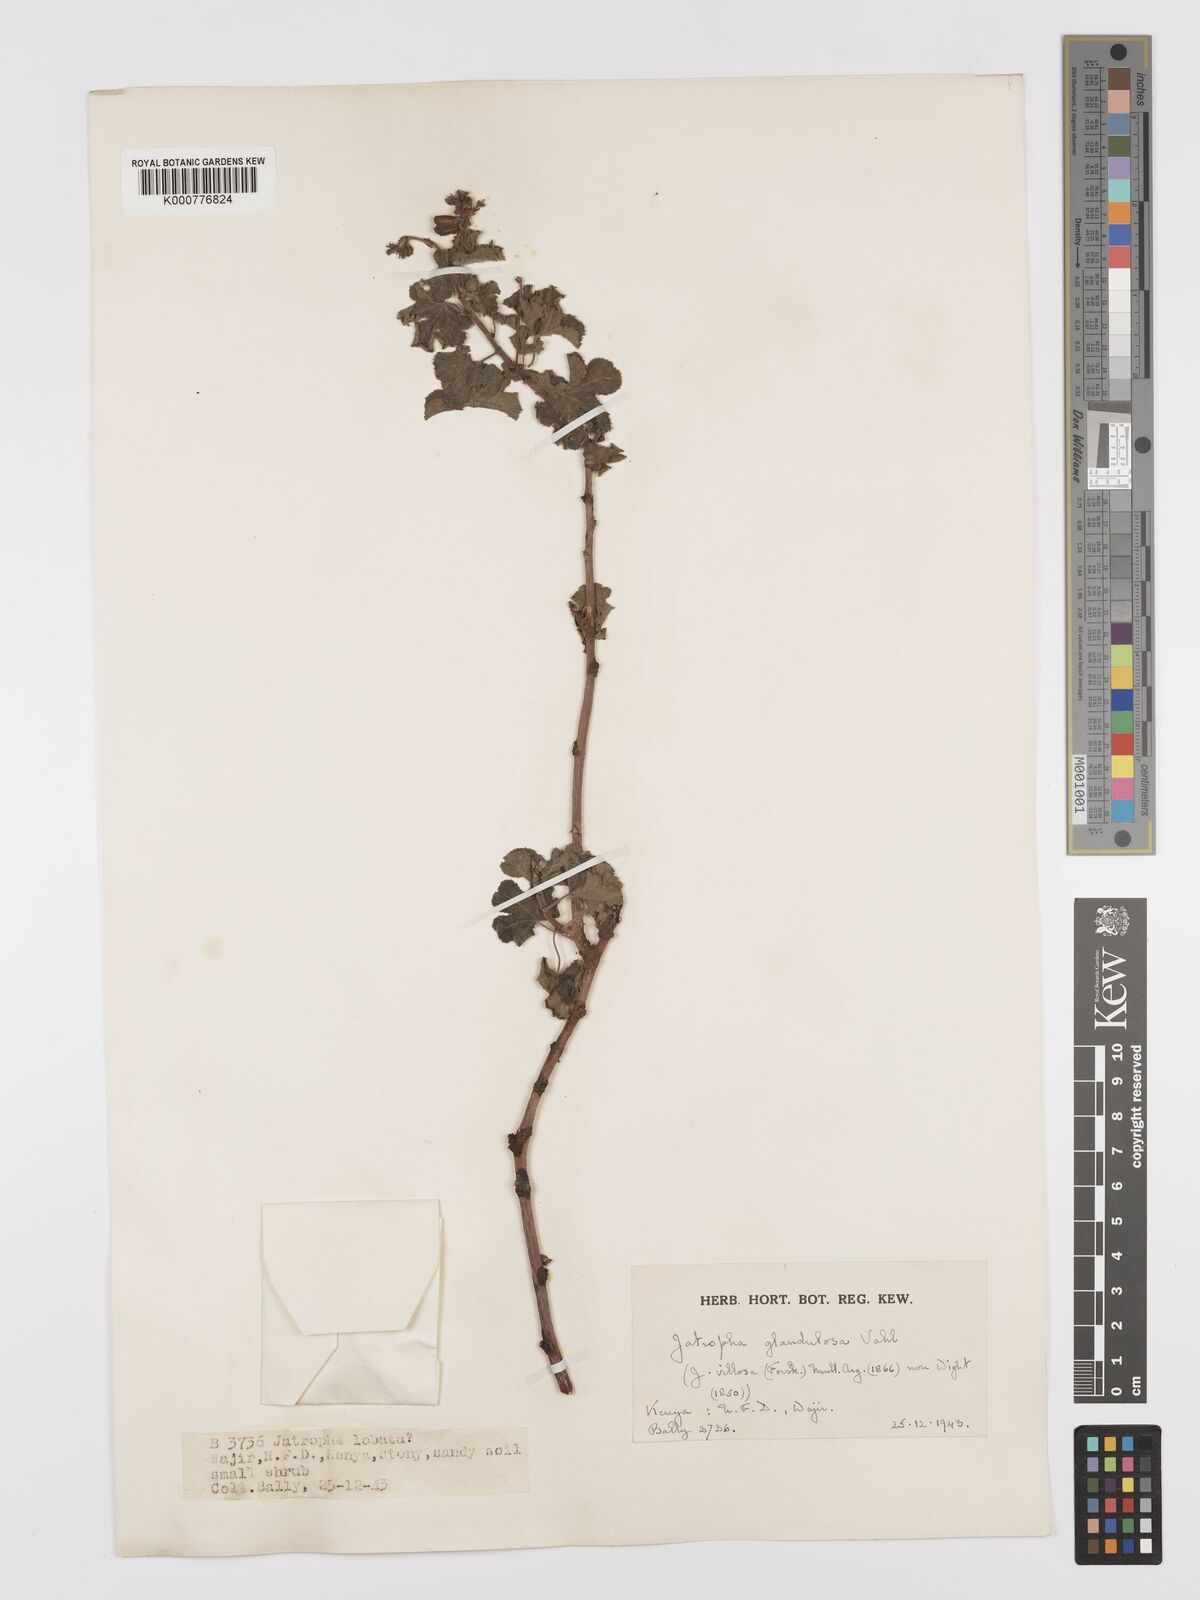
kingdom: Plantae
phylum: Tracheophyta
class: Magnoliopsida
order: Malpighiales
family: Euphorbiaceae
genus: Jatropha
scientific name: Jatropha pelargoniifolia
